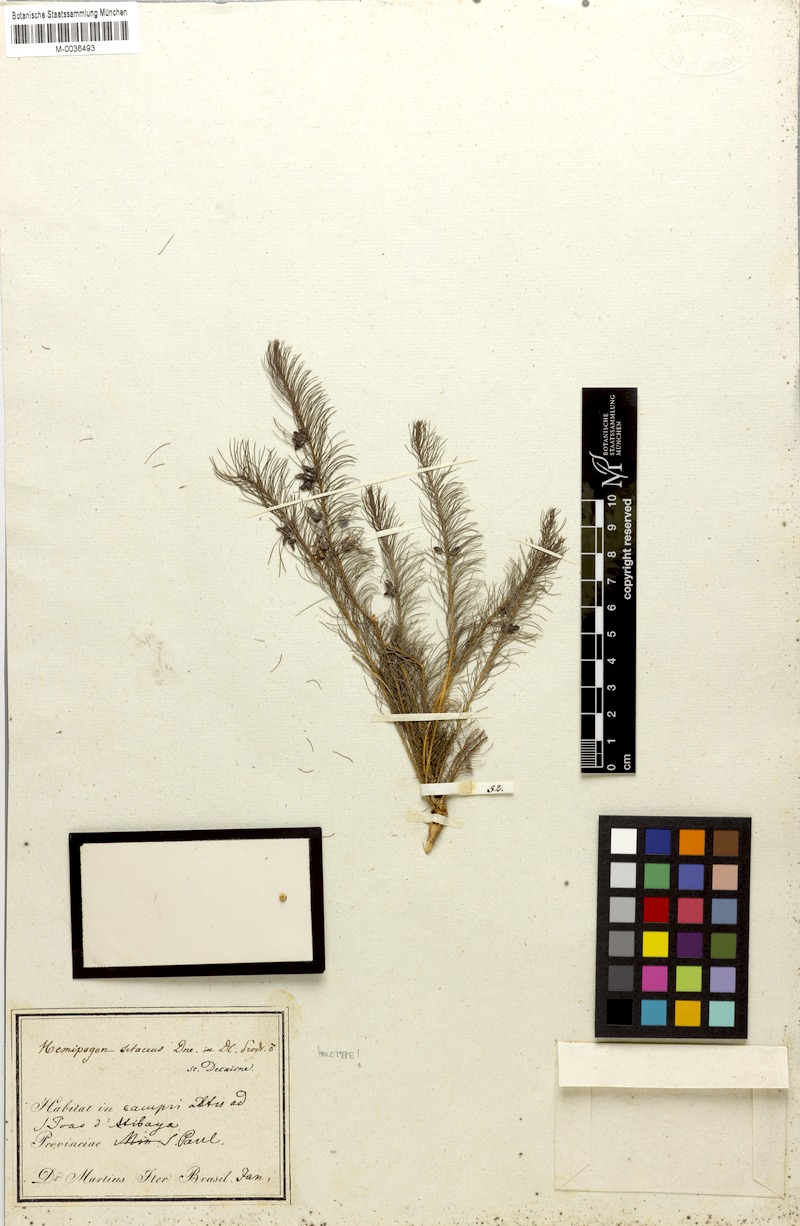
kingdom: Plantae
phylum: Tracheophyta
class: Magnoliopsida
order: Gentianales
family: Apocynaceae
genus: Hemipogon
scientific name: Hemipogon setaceus
